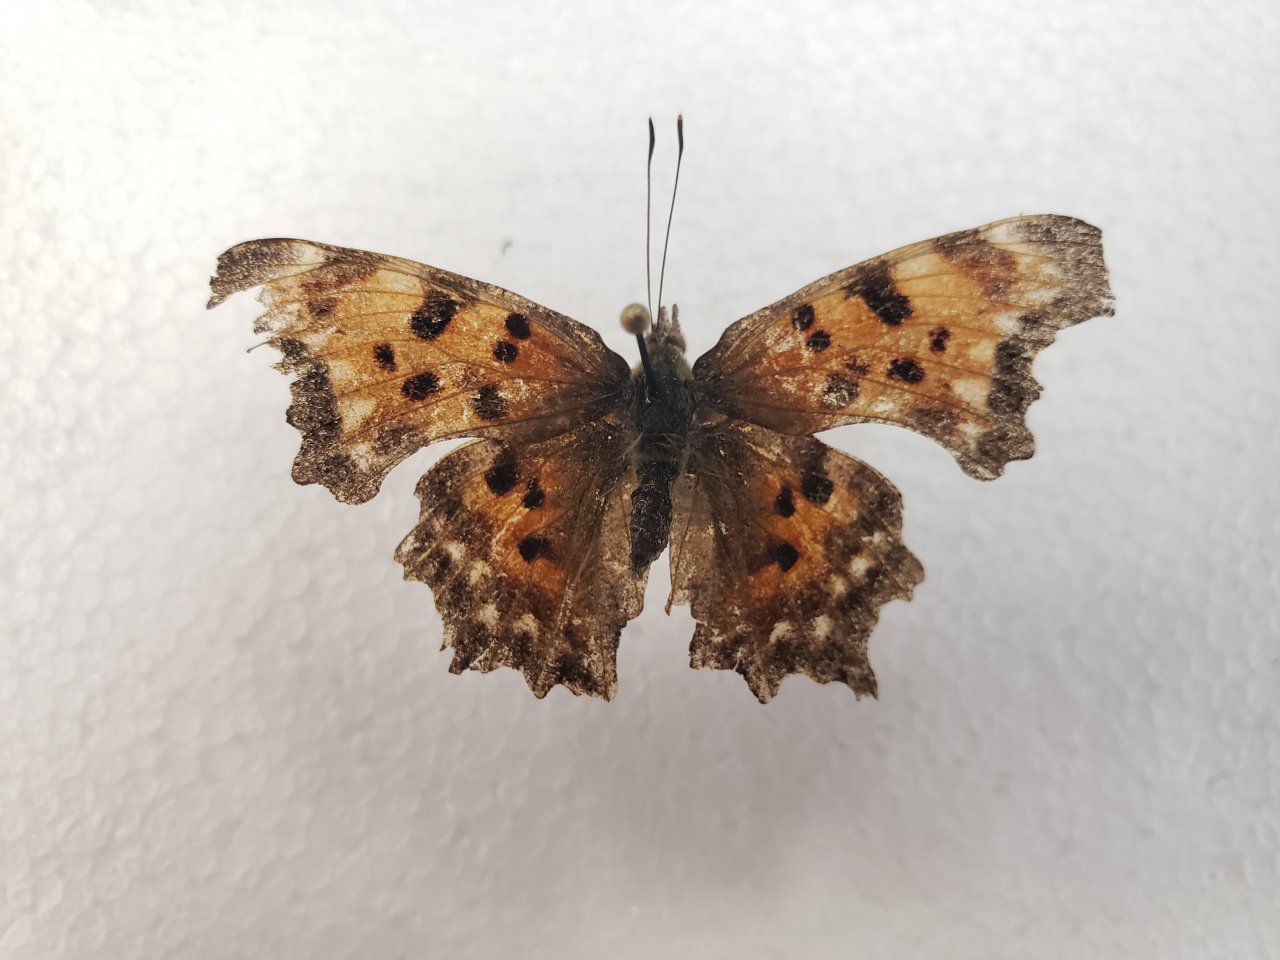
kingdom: Animalia
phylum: Arthropoda
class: Insecta
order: Lepidoptera
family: Nymphalidae
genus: Polygonia
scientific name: Polygonia faunus
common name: Green Comma
